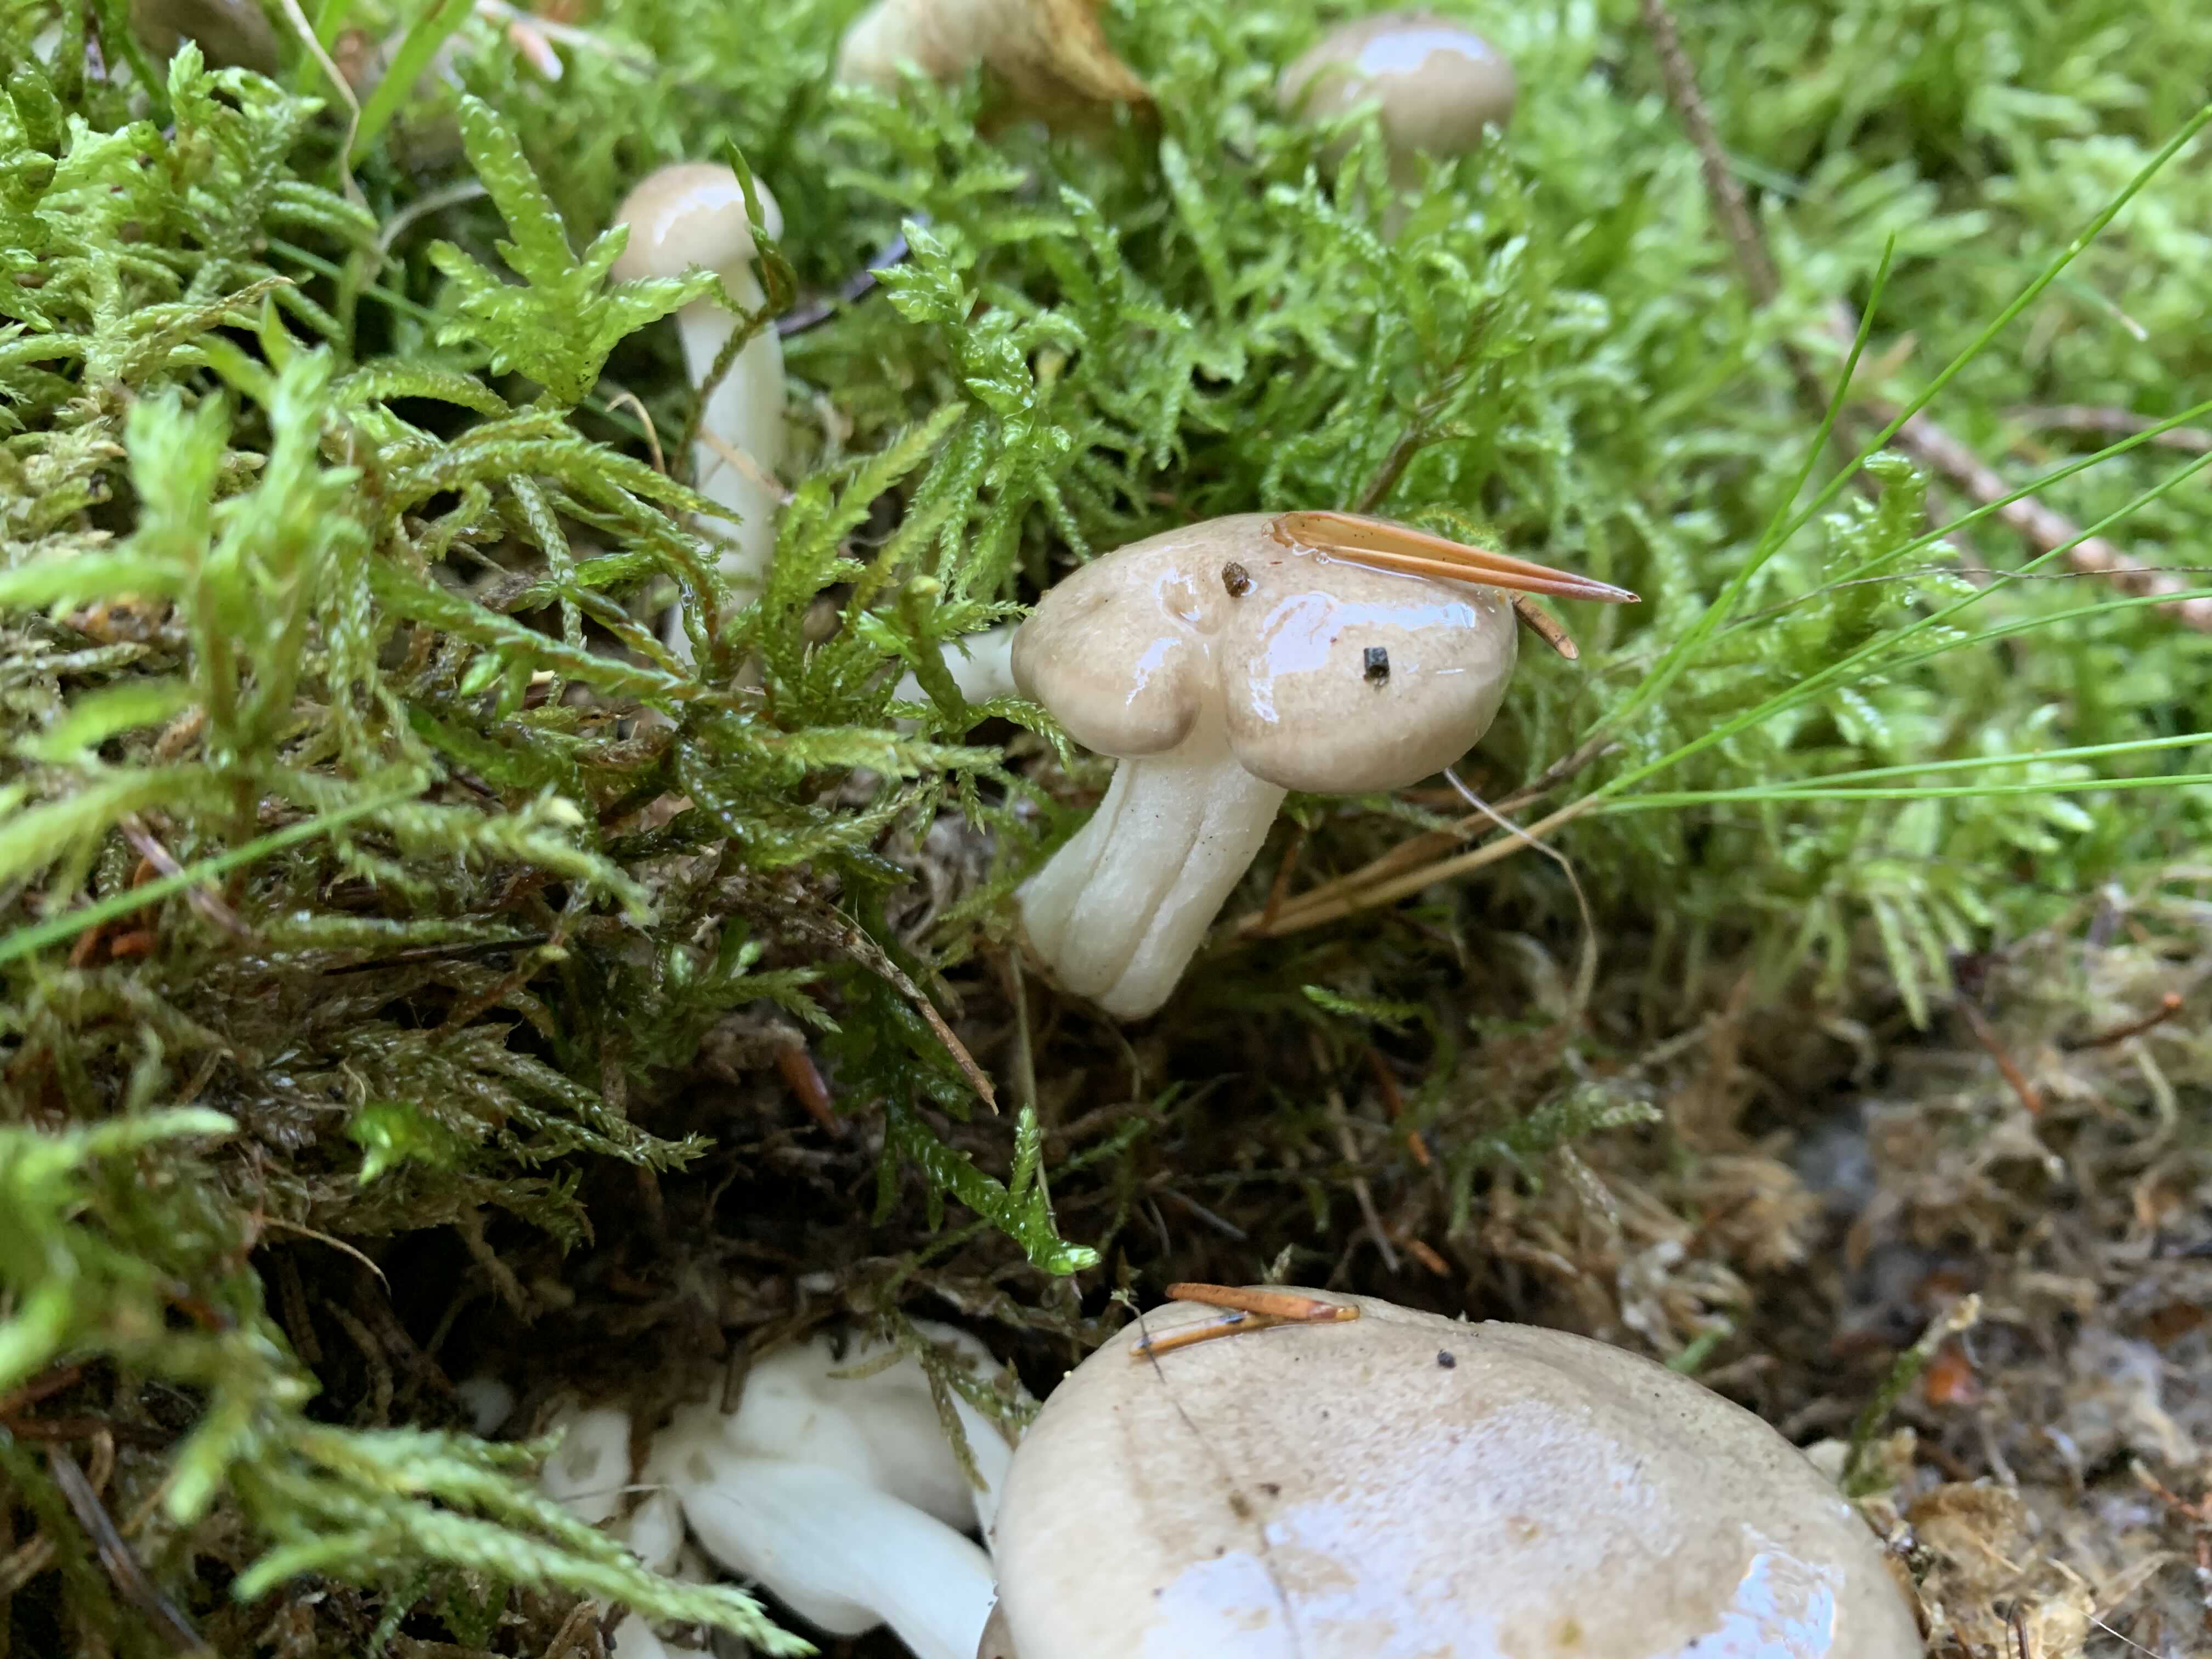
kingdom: Fungi
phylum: Basidiomycota
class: Agaricomycetes
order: Agaricales
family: Hygrophoraceae
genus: Hygrophorus
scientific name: Hygrophorus agathosmus
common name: vellugtende sneglehat
